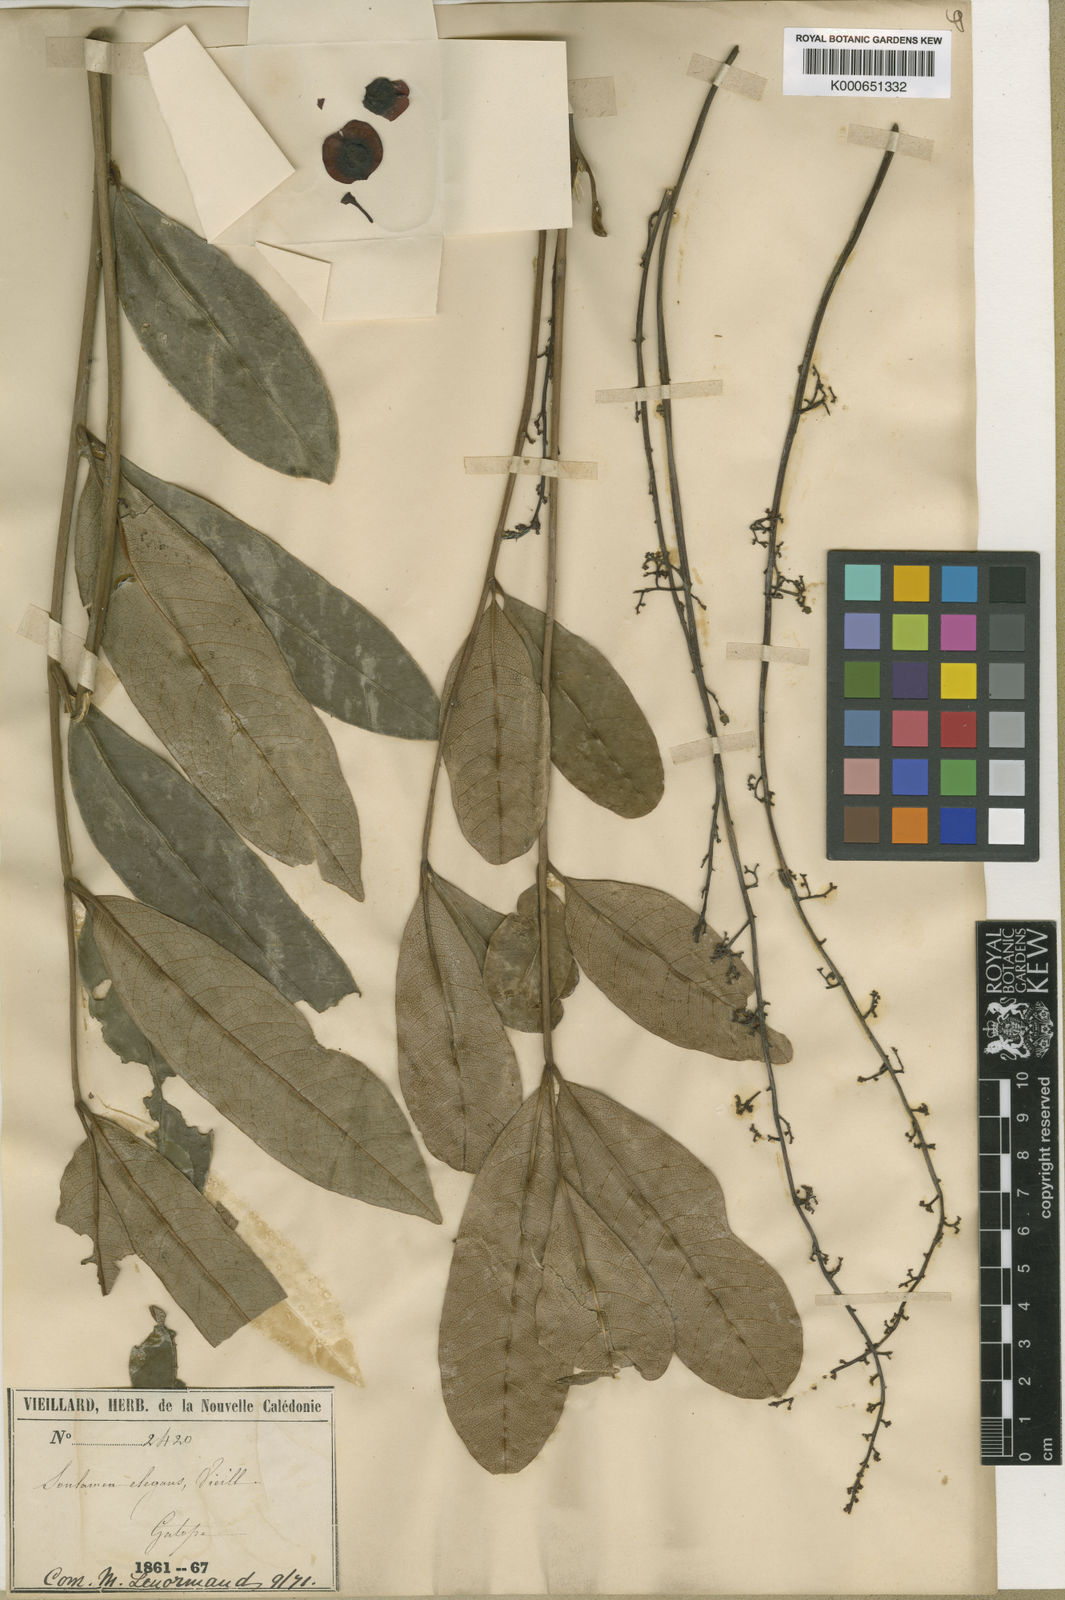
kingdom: Plantae
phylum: Tracheophyta
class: Magnoliopsida
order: Sapindales
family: Simaroubaceae
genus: Soulamea
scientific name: Soulamea
